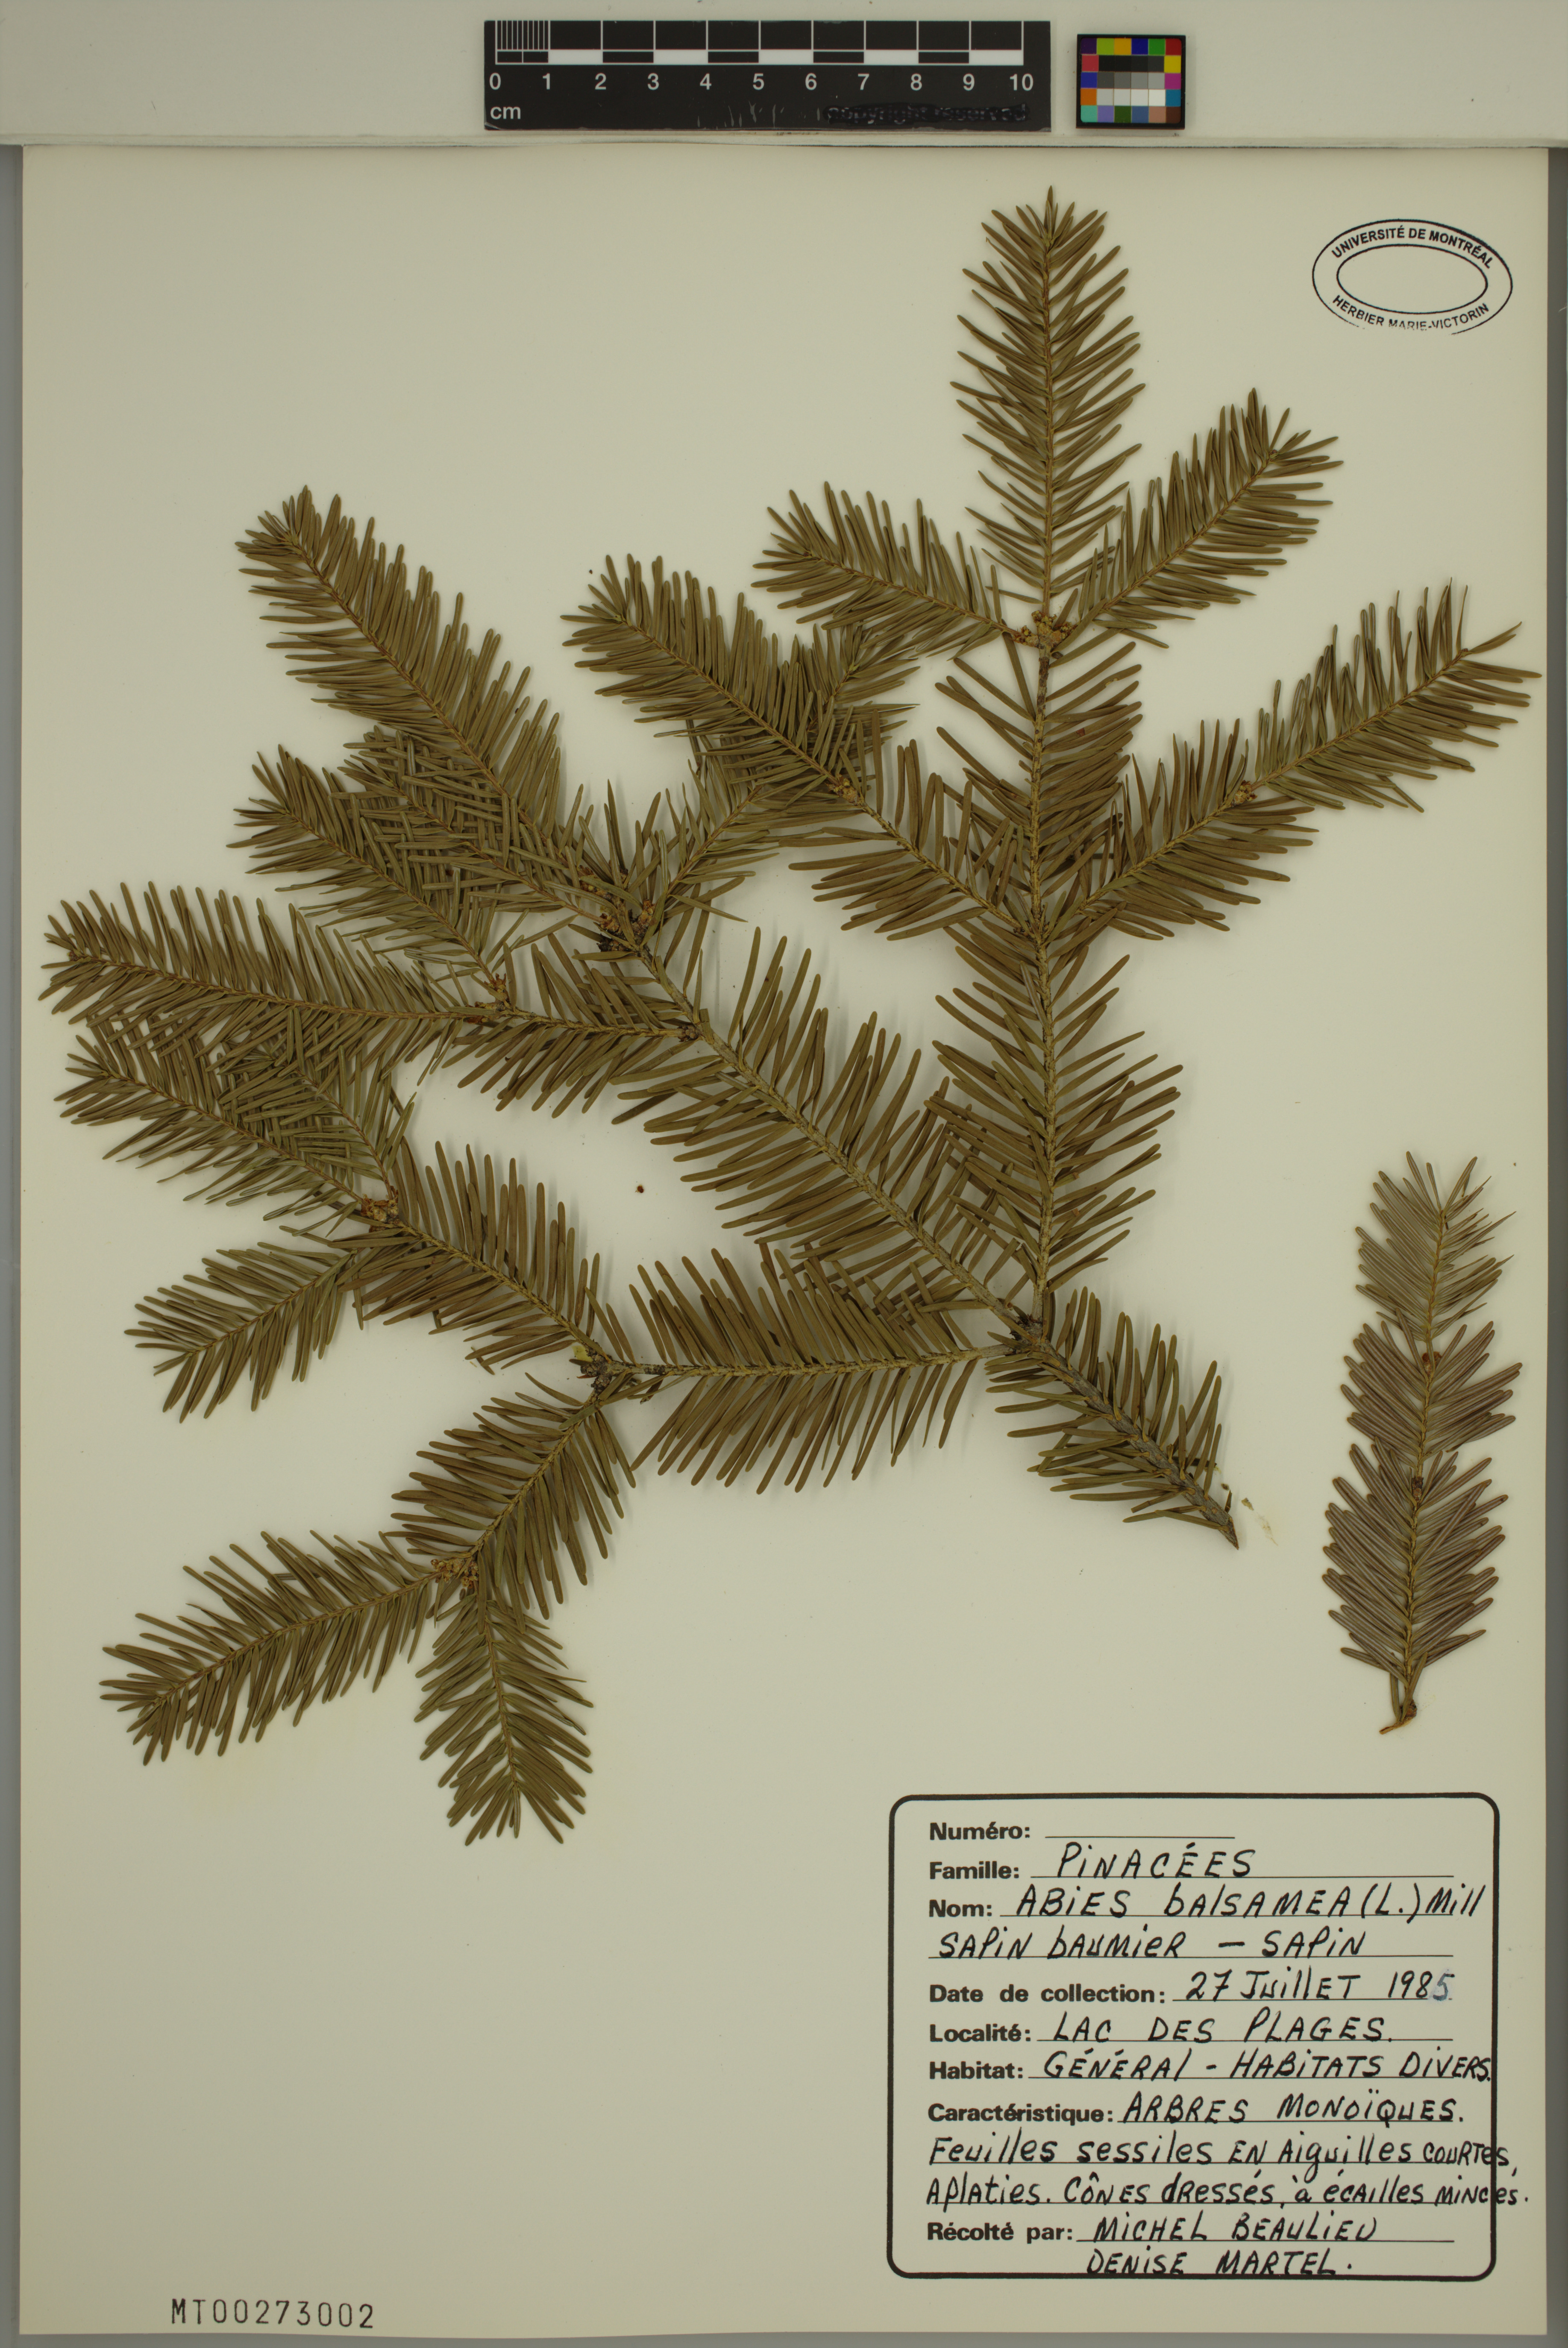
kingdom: Plantae
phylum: Tracheophyta
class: Pinopsida
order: Pinales
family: Pinaceae
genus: Abies
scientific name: Abies balsamea
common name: Balsam fir
